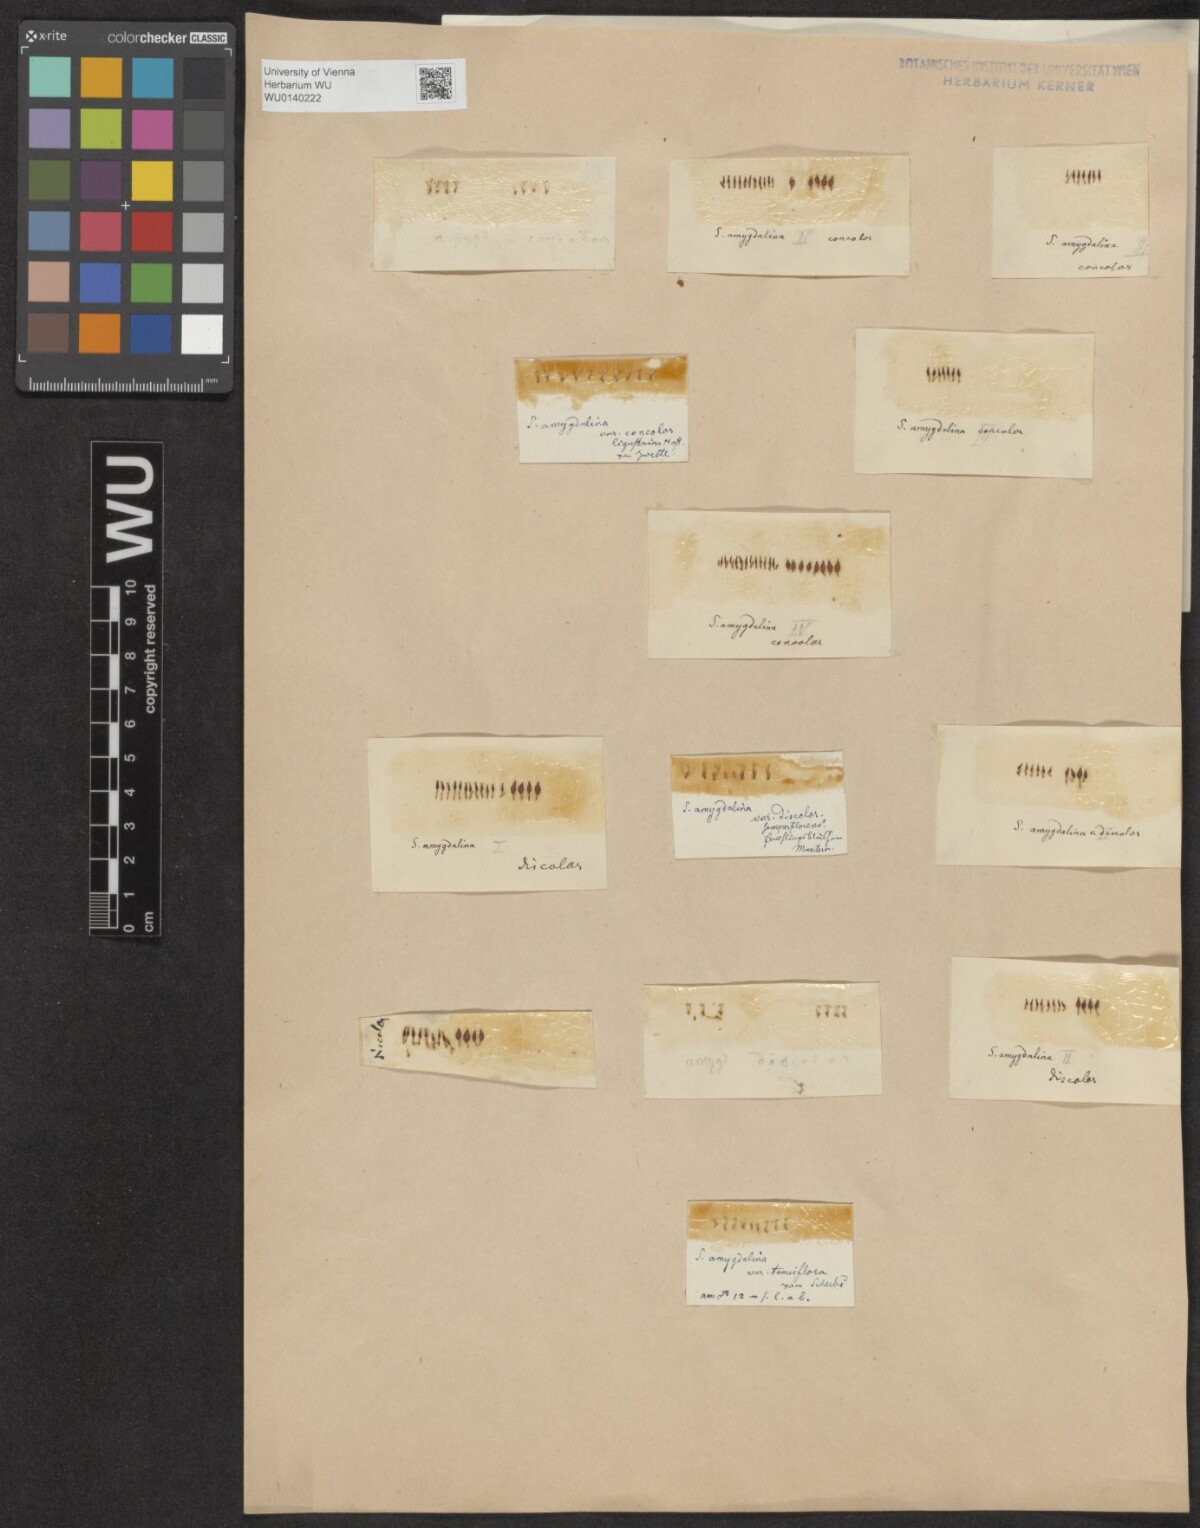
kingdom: Plantae
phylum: Tracheophyta
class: Magnoliopsida
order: Malpighiales
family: Salicaceae
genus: Salix
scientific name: Salix triandra
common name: Almond willow
